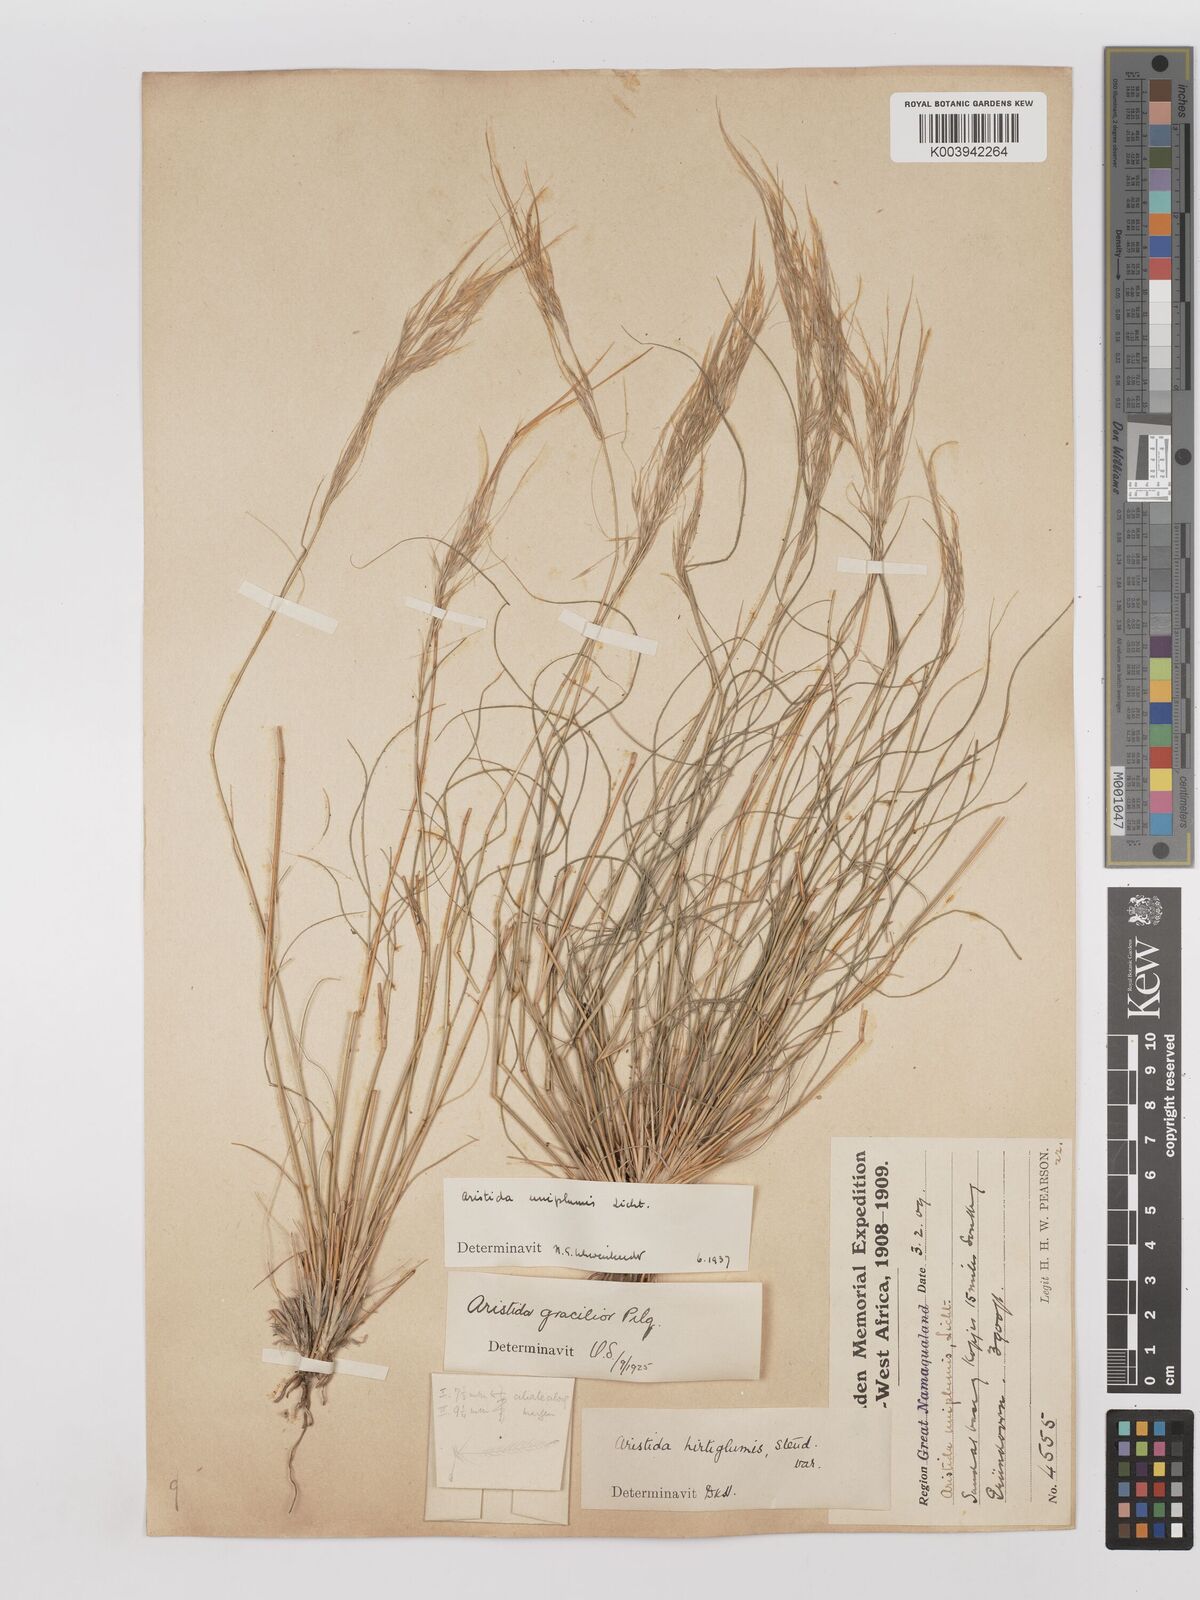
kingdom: Plantae
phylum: Tracheophyta
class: Liliopsida
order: Poales
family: Poaceae
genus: Stipagrostis
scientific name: Stipagrostis uniplumis
